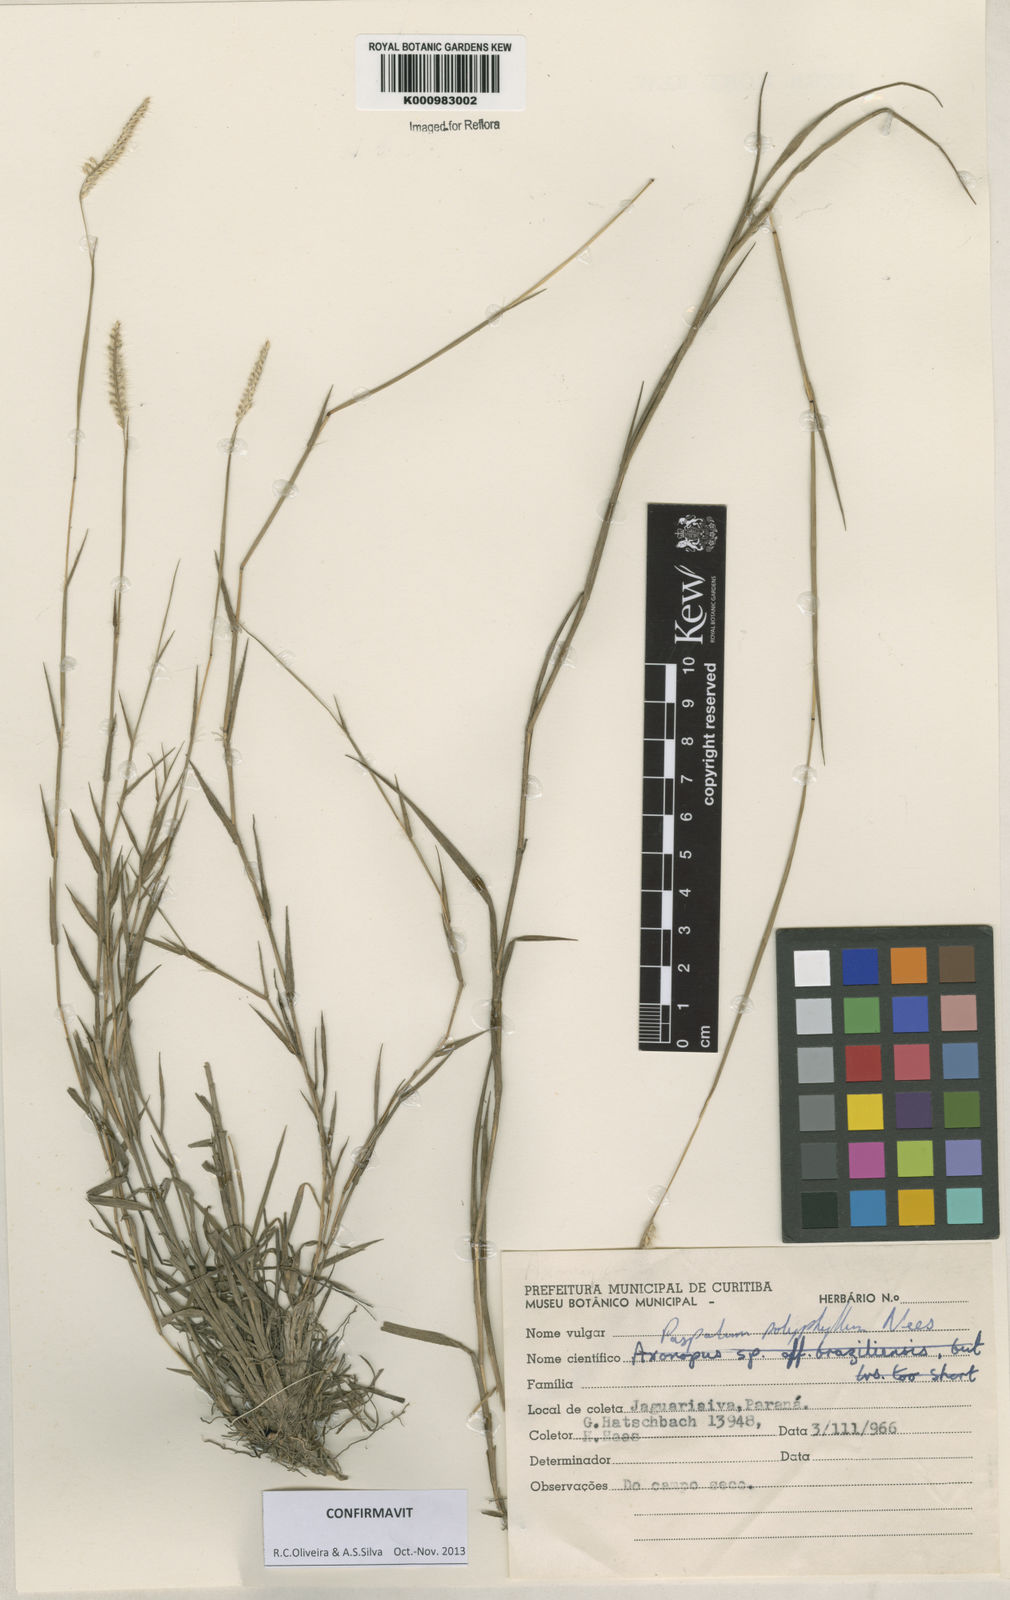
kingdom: Plantae
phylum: Tracheophyta
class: Liliopsida
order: Poales
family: Poaceae
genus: Paspalum
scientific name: Paspalum
